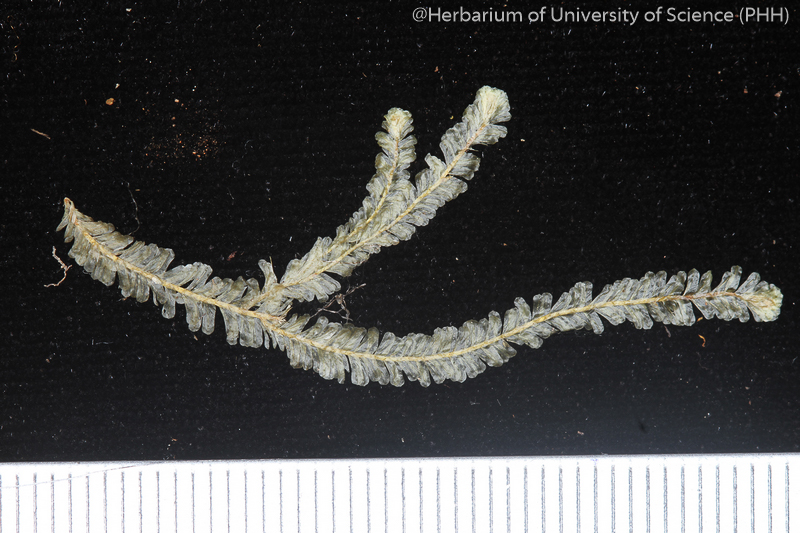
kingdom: Plantae
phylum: Bryophyta
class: Bryopsida
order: Hypnales
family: Neckeraceae
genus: Planicladium
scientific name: Planicladium semperianum
